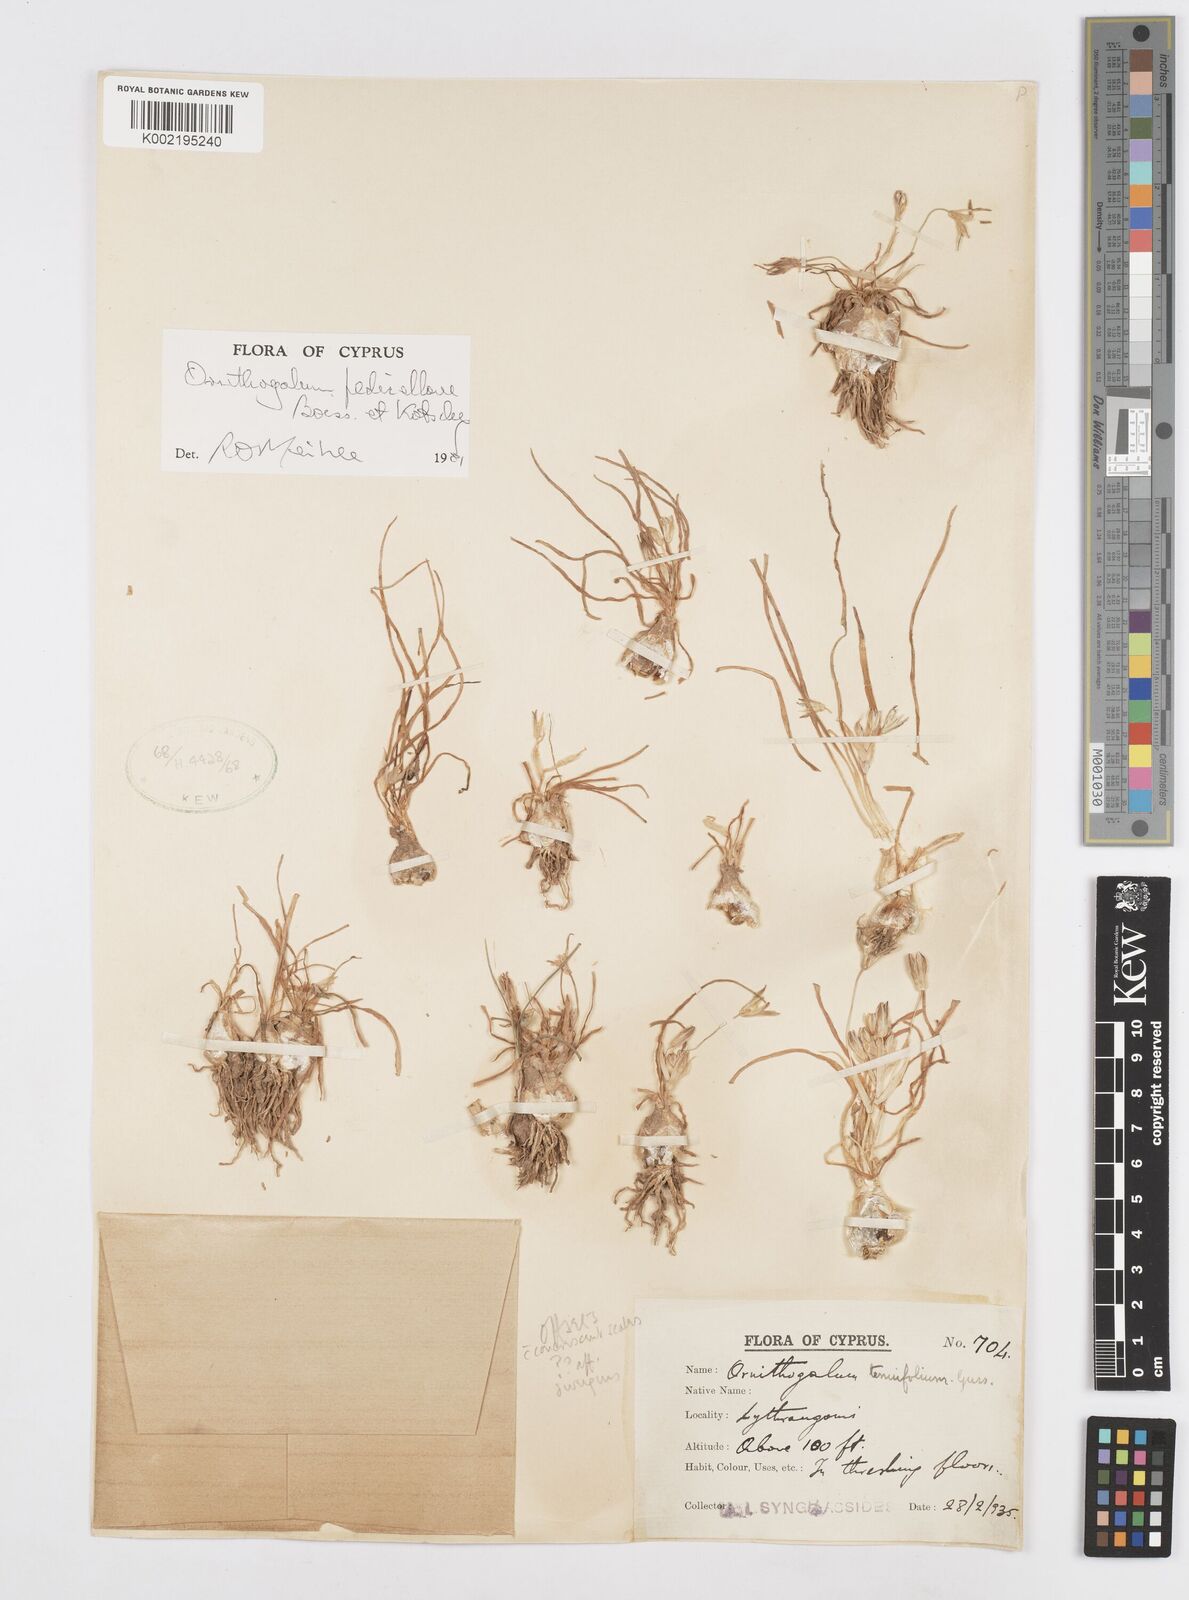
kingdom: Plantae
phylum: Tracheophyta
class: Liliopsida
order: Asparagales
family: Asparagaceae
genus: Ornithogalum
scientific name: Ornithogalum pedicellare
